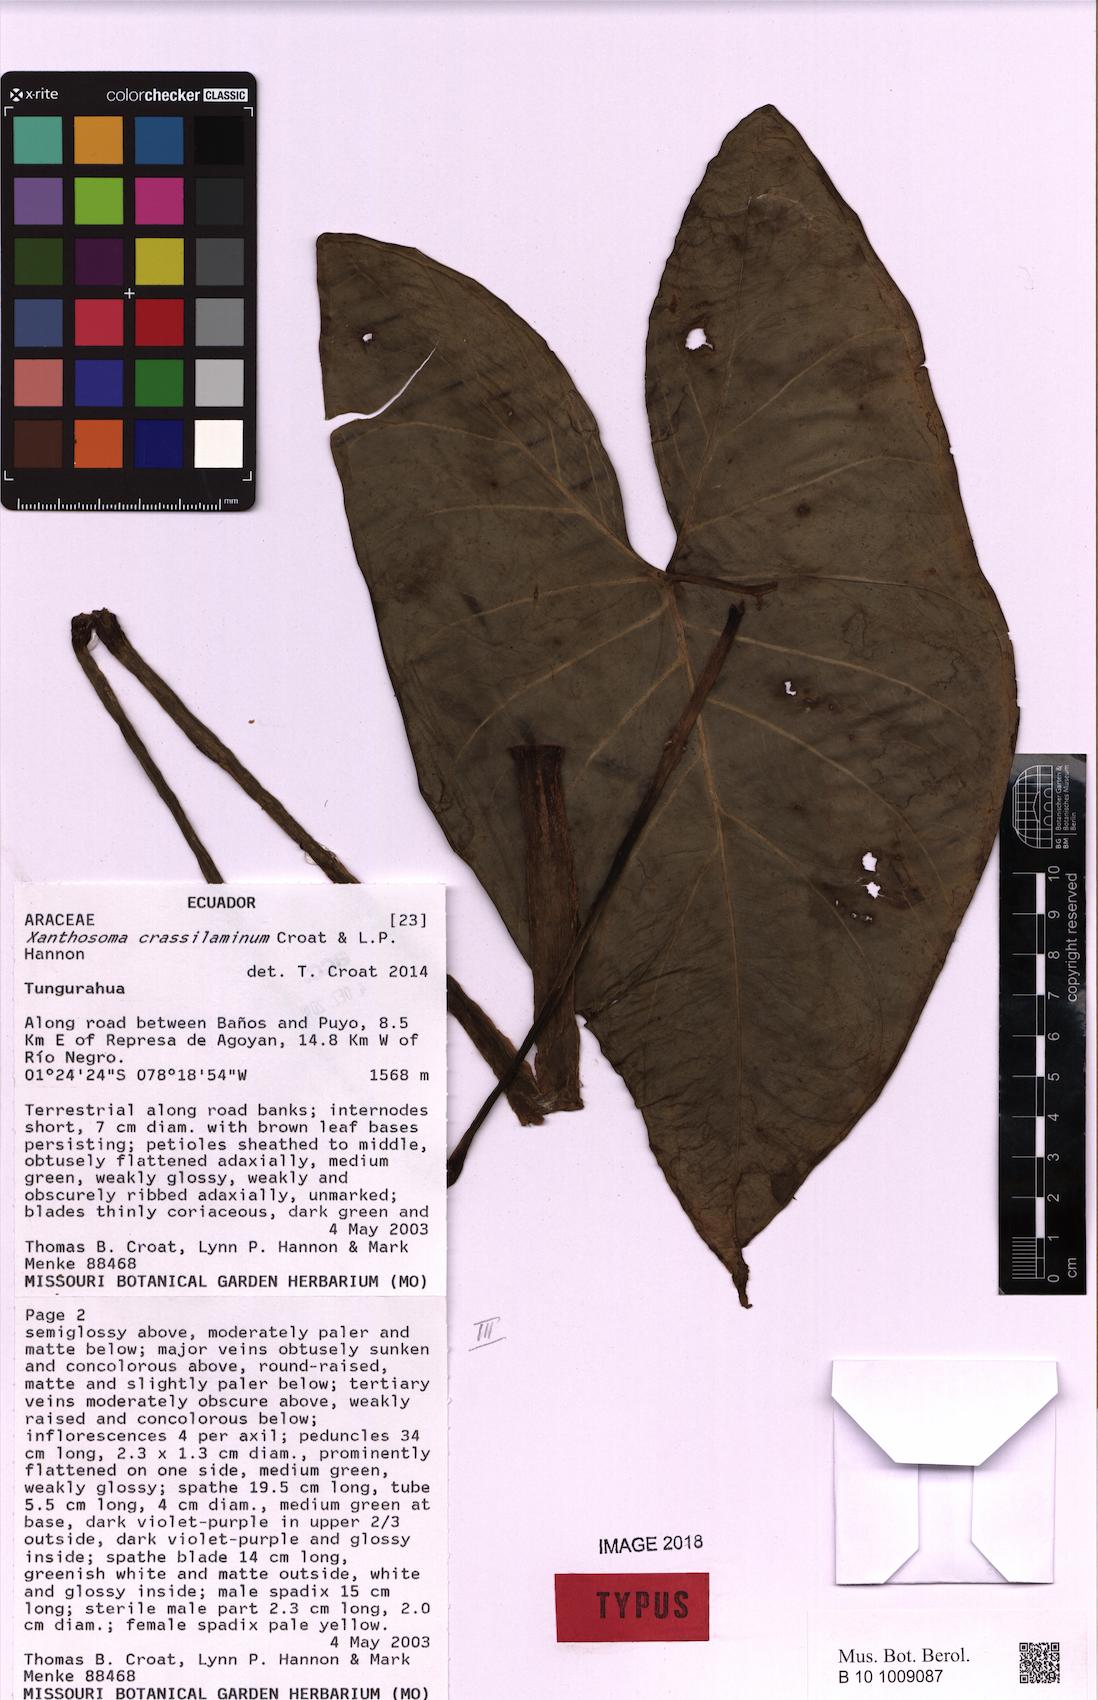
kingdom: Plantae
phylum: Tracheophyta
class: Liliopsida
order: Alismatales
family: Araceae
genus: Xanthosoma
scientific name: Xanthosoma crassilaminum
